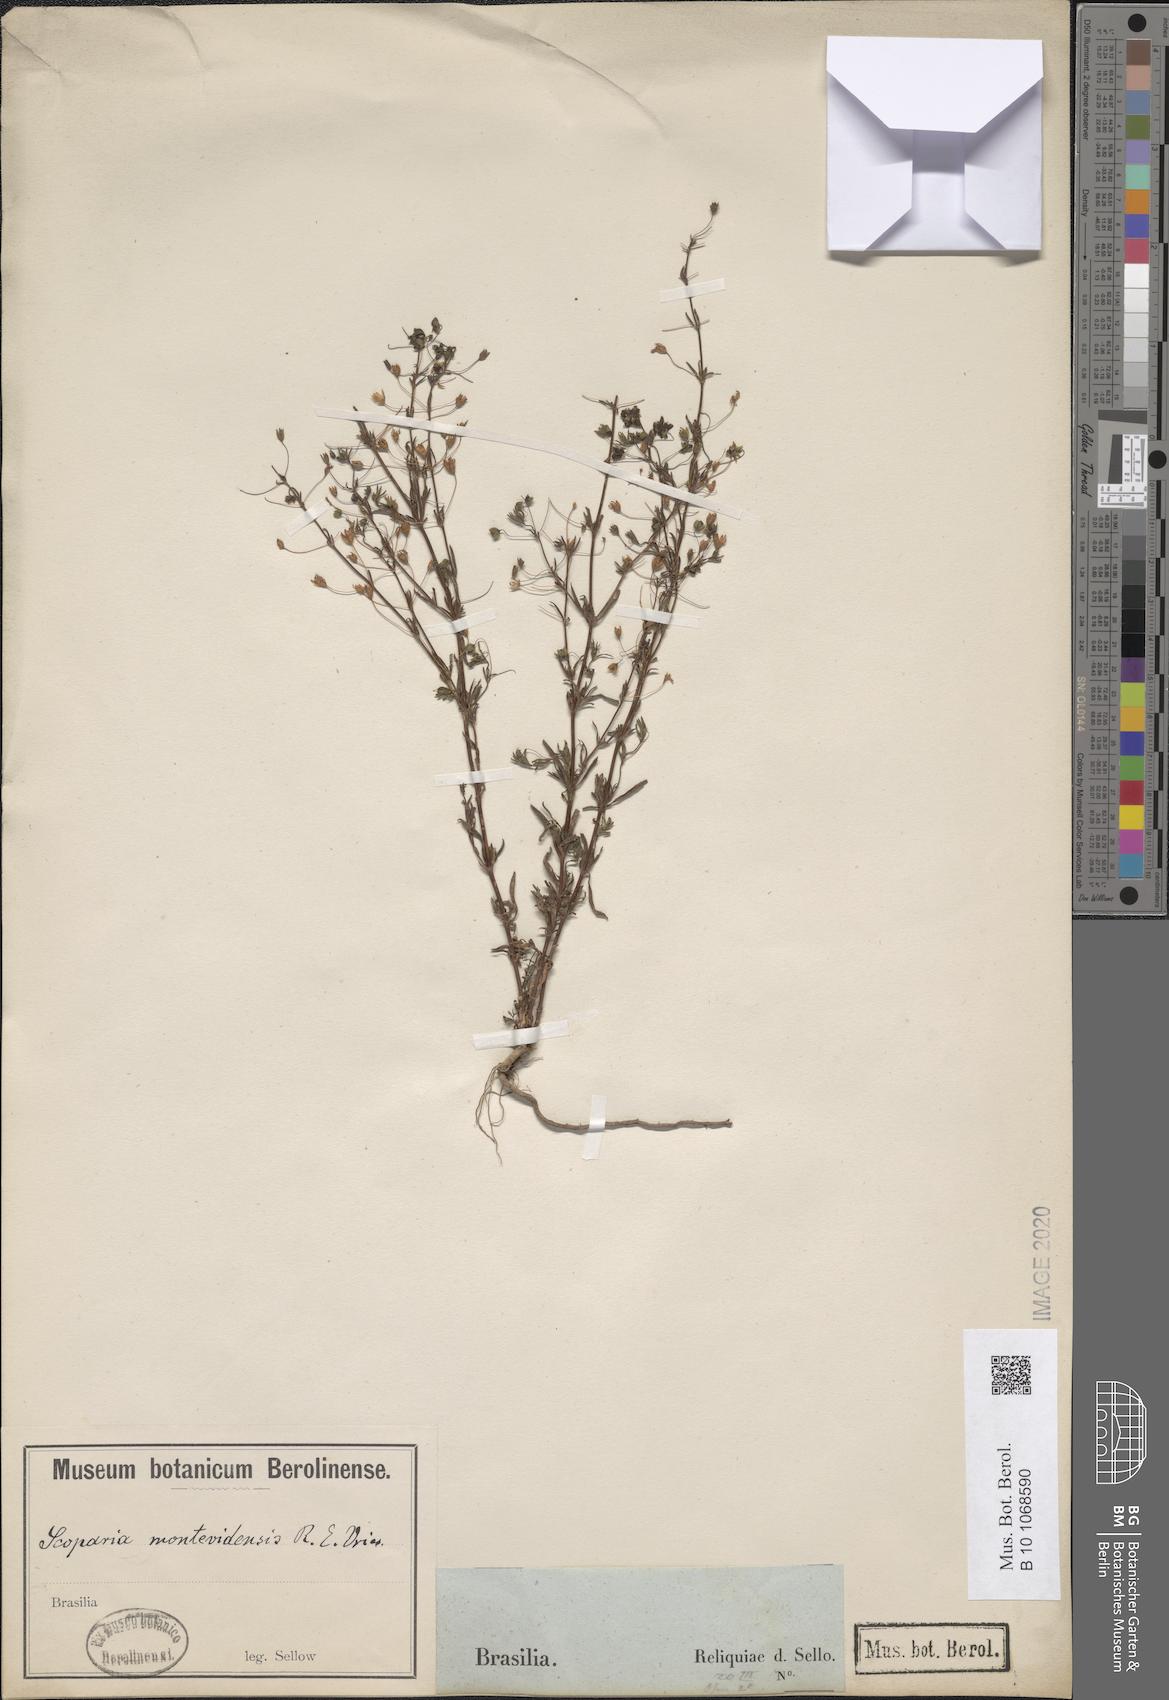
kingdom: Plantae
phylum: Tracheophyta
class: Magnoliopsida
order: Lamiales
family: Plantaginaceae
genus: Scoparia
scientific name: Scoparia montevidensis
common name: Broomwort
